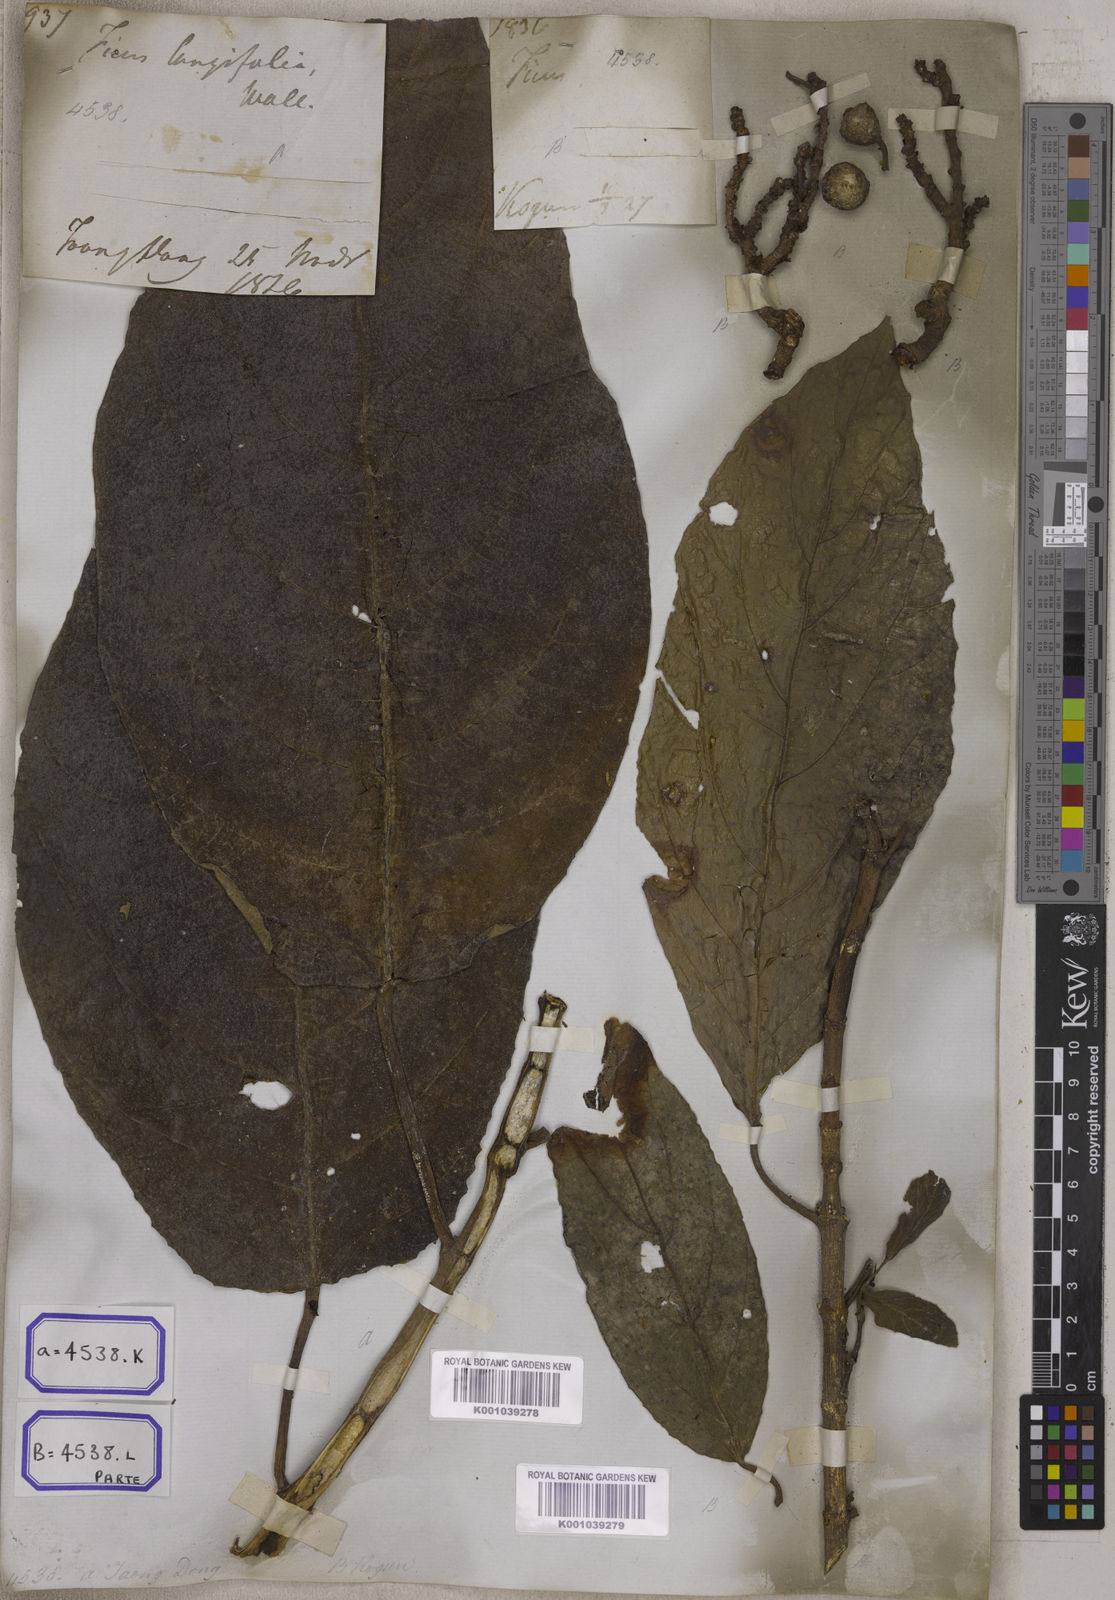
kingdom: Plantae
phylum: Tracheophyta
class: Magnoliopsida
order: Rosales
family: Moraceae
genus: Ficus
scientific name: Ficus hispida
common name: Hairy fig
